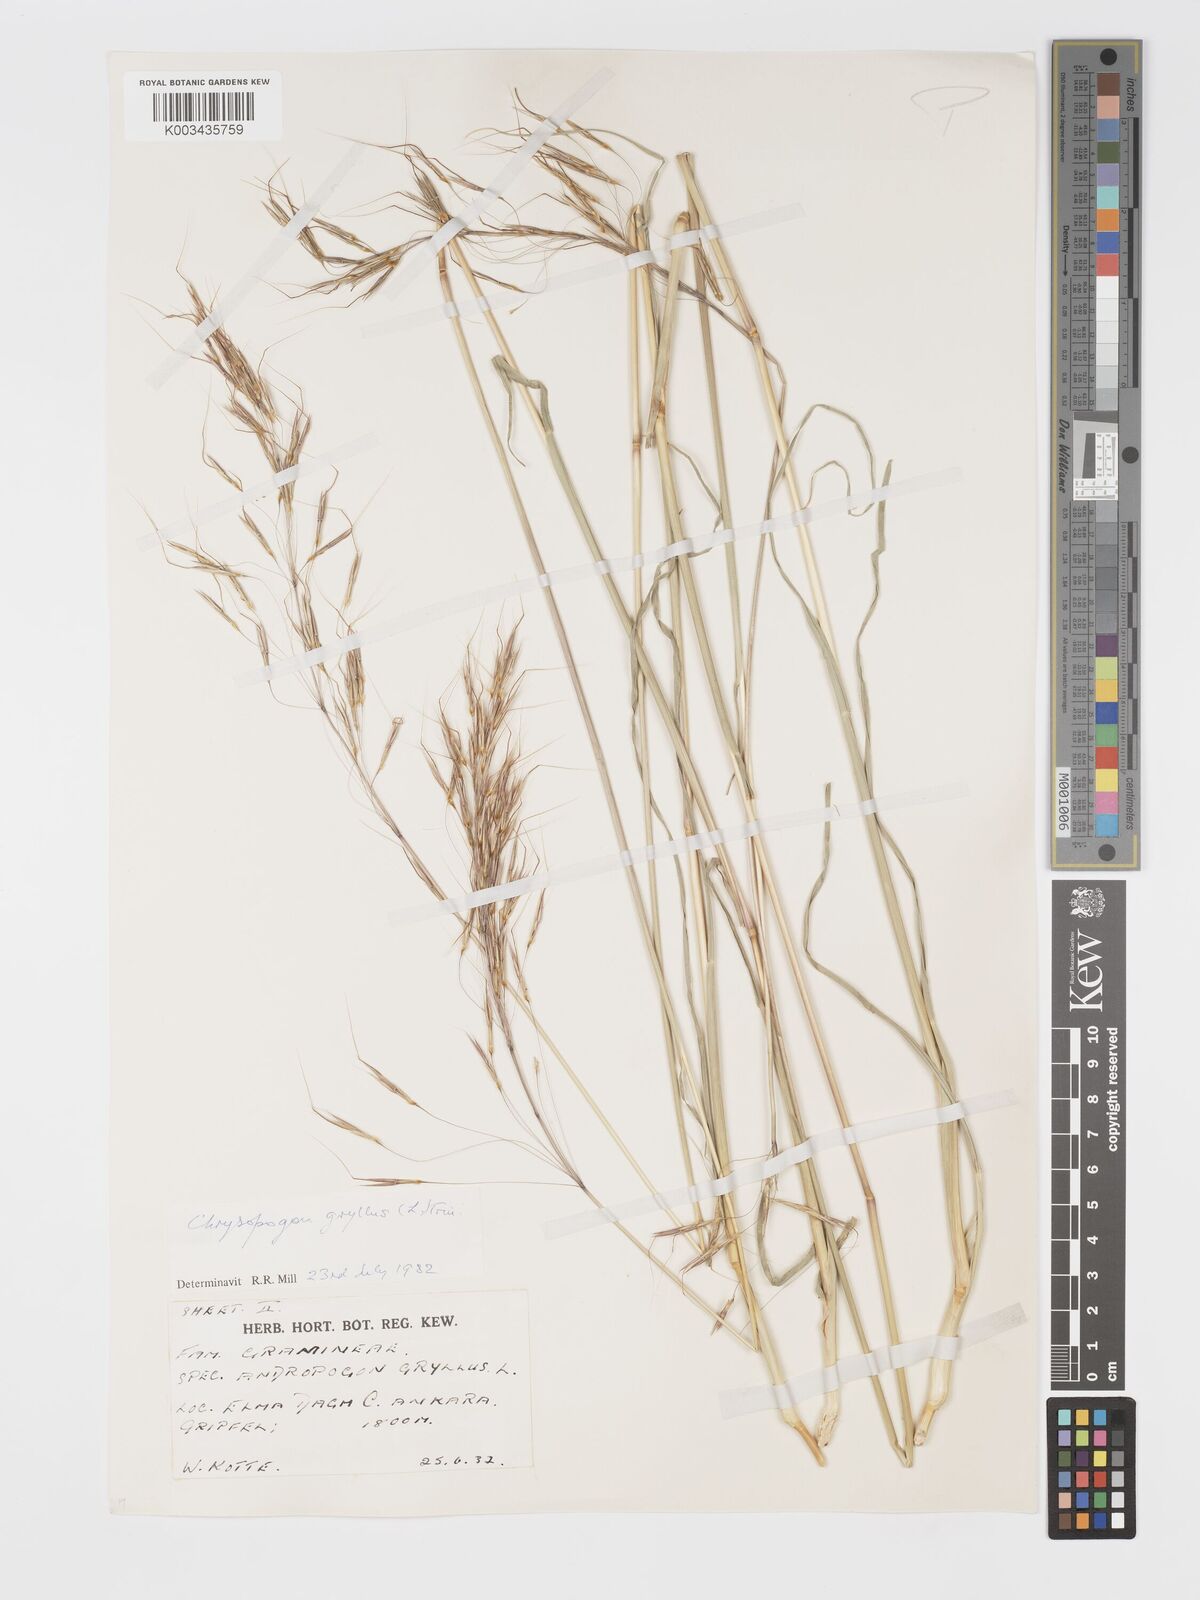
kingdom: Plantae
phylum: Tracheophyta
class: Liliopsida
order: Poales
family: Poaceae
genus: Chrysopogon
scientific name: Chrysopogon gryllus
